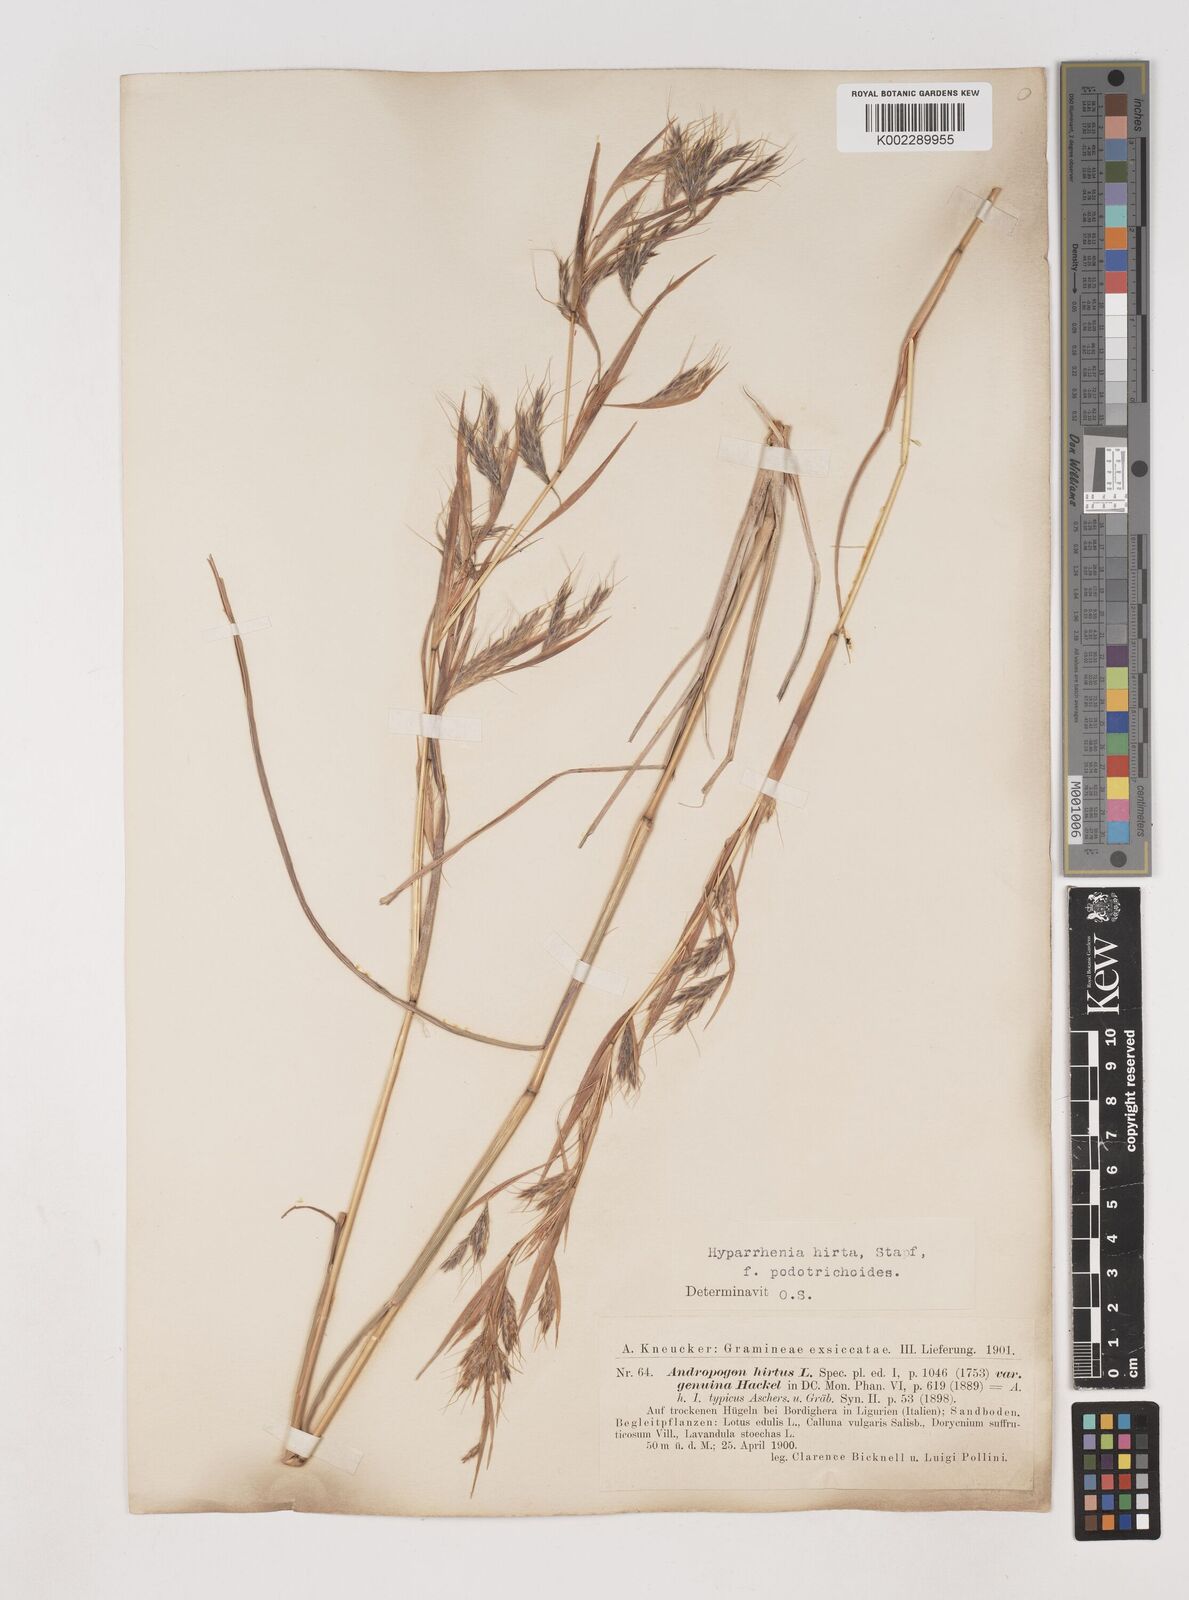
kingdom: Plantae
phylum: Tracheophyta
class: Liliopsida
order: Poales
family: Poaceae
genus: Hyparrhenia
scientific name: Hyparrhenia hirta
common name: Thatching grass
